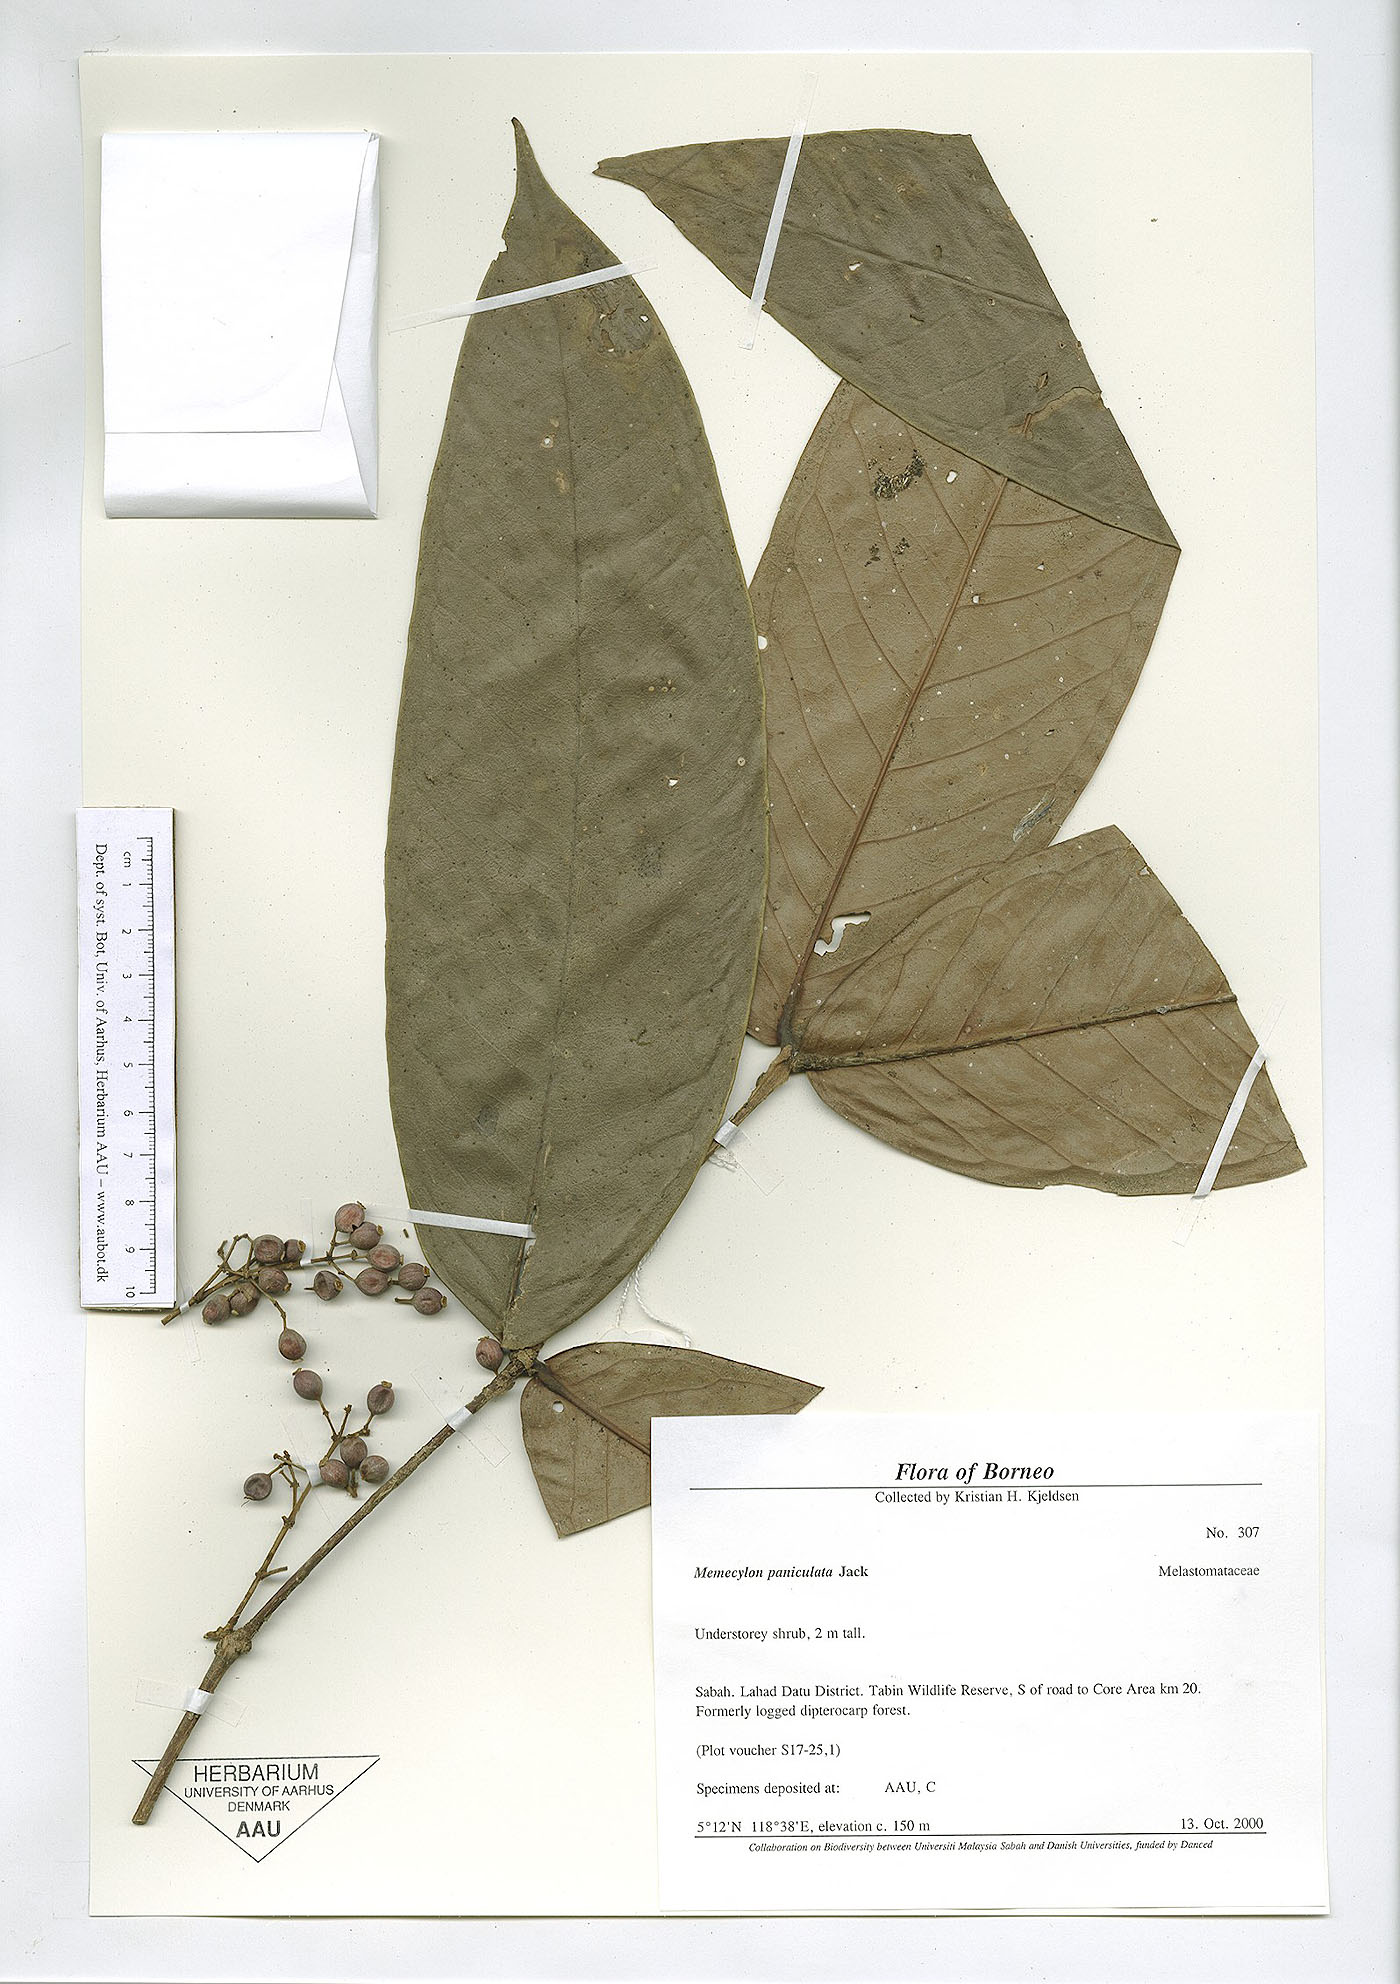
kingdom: Plantae
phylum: Tracheophyta
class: Magnoliopsida
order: Myrtales
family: Melastomataceae
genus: Memecylon
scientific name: Memecylon paniculatum
